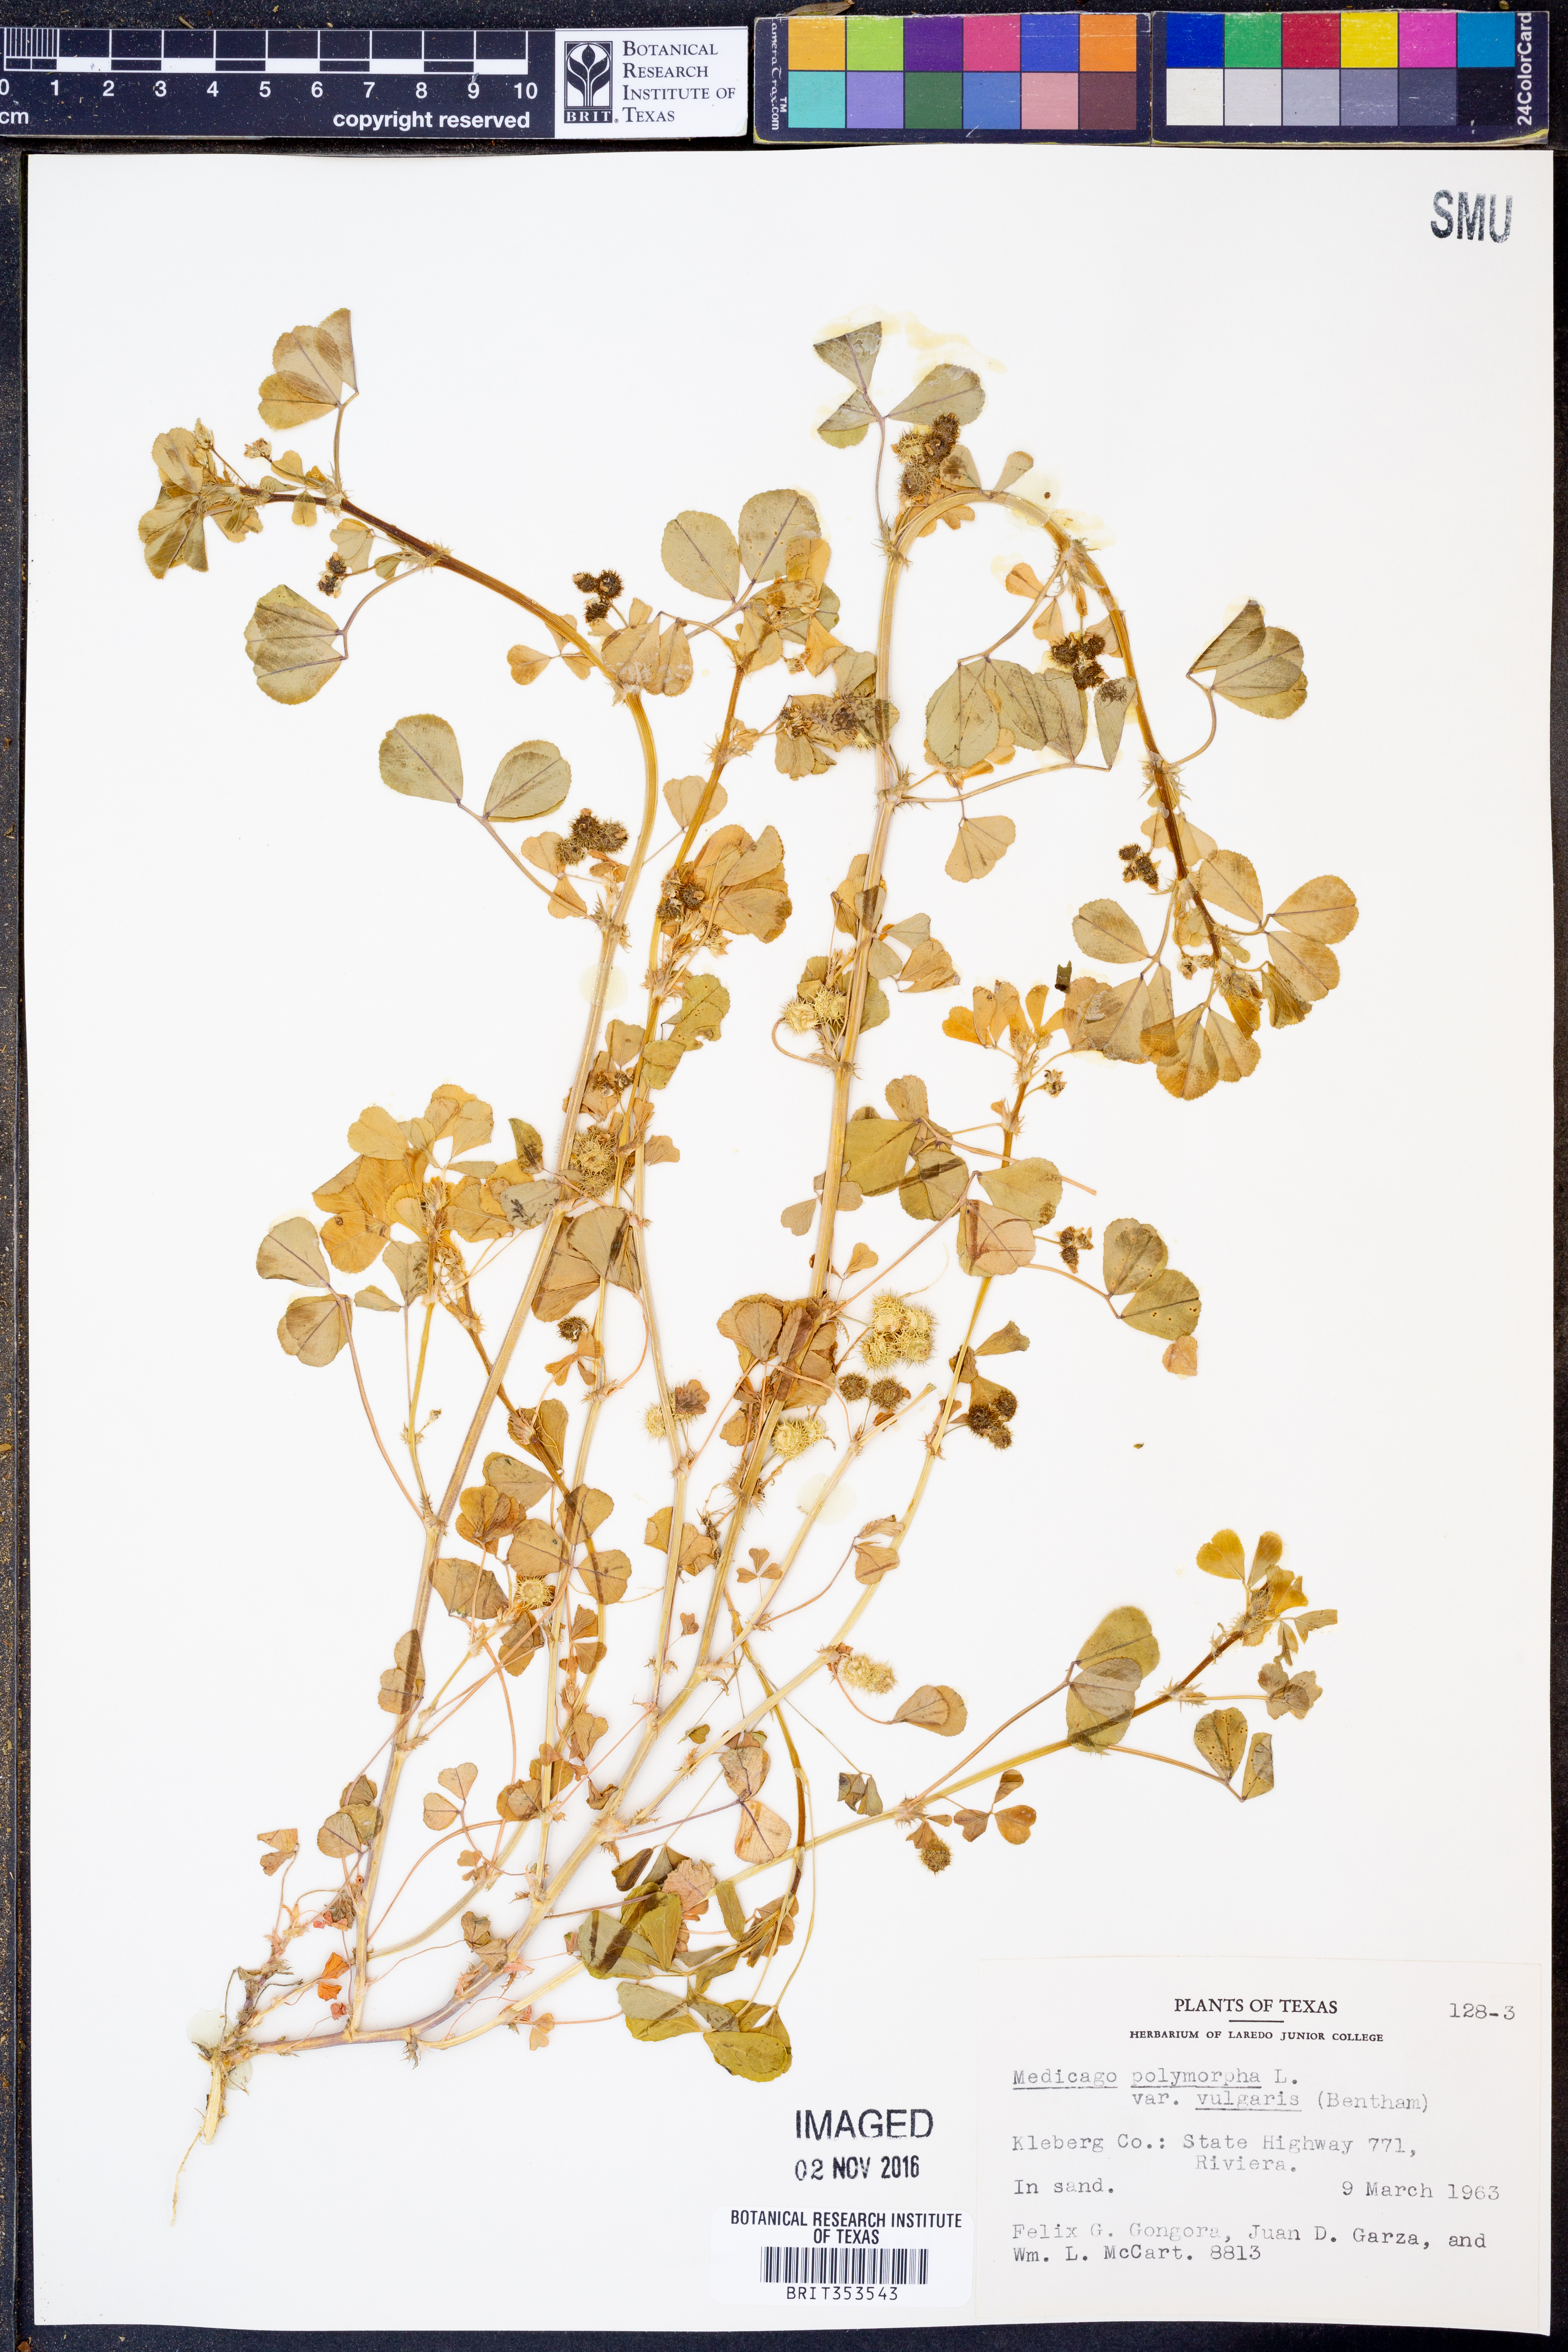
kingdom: Plantae
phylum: Tracheophyta
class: Magnoliopsida
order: Fabales
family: Fabaceae
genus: Medicago
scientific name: Medicago polymorpha
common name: Burclover
